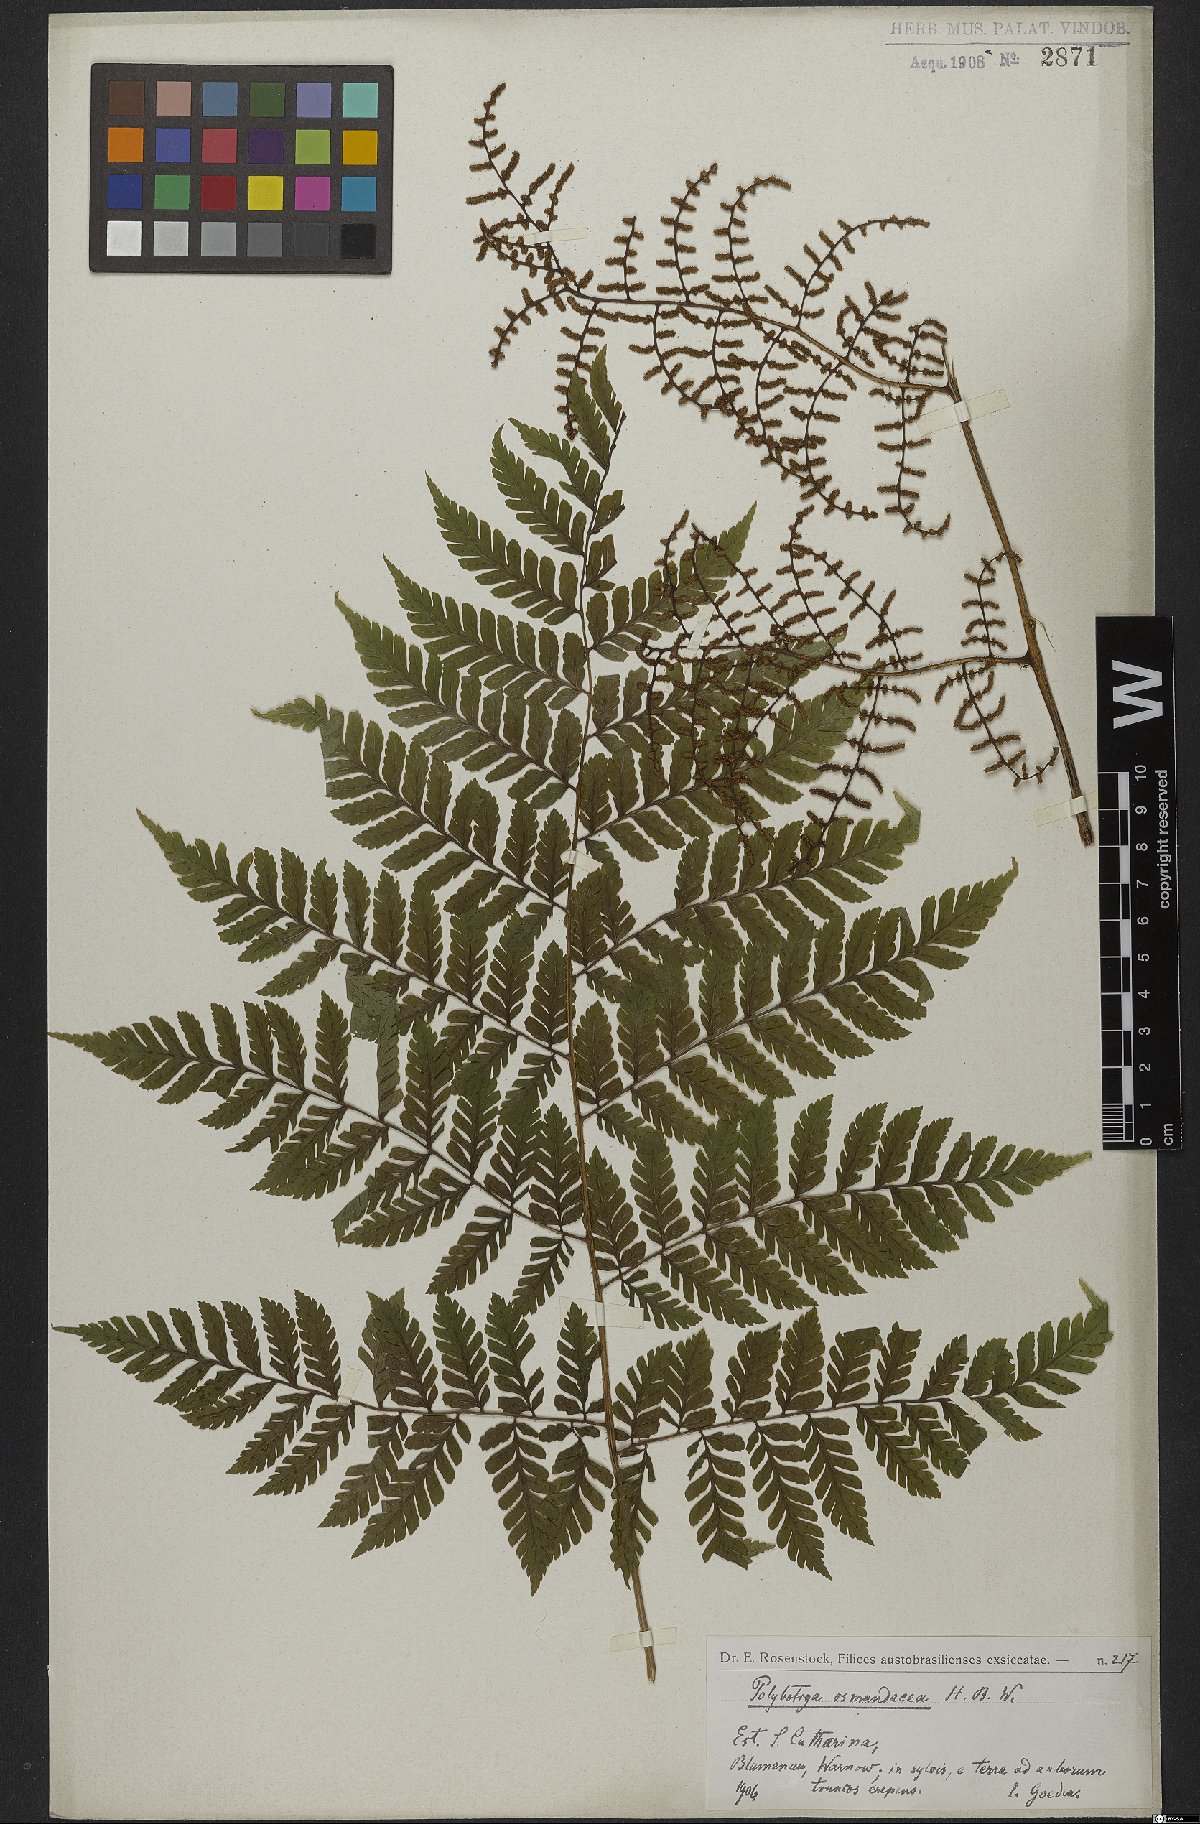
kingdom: Plantae
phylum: Tracheophyta
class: Polypodiopsida
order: Polypodiales
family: Dryopteridaceae
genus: Polybotrya
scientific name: Polybotrya osmundacea
